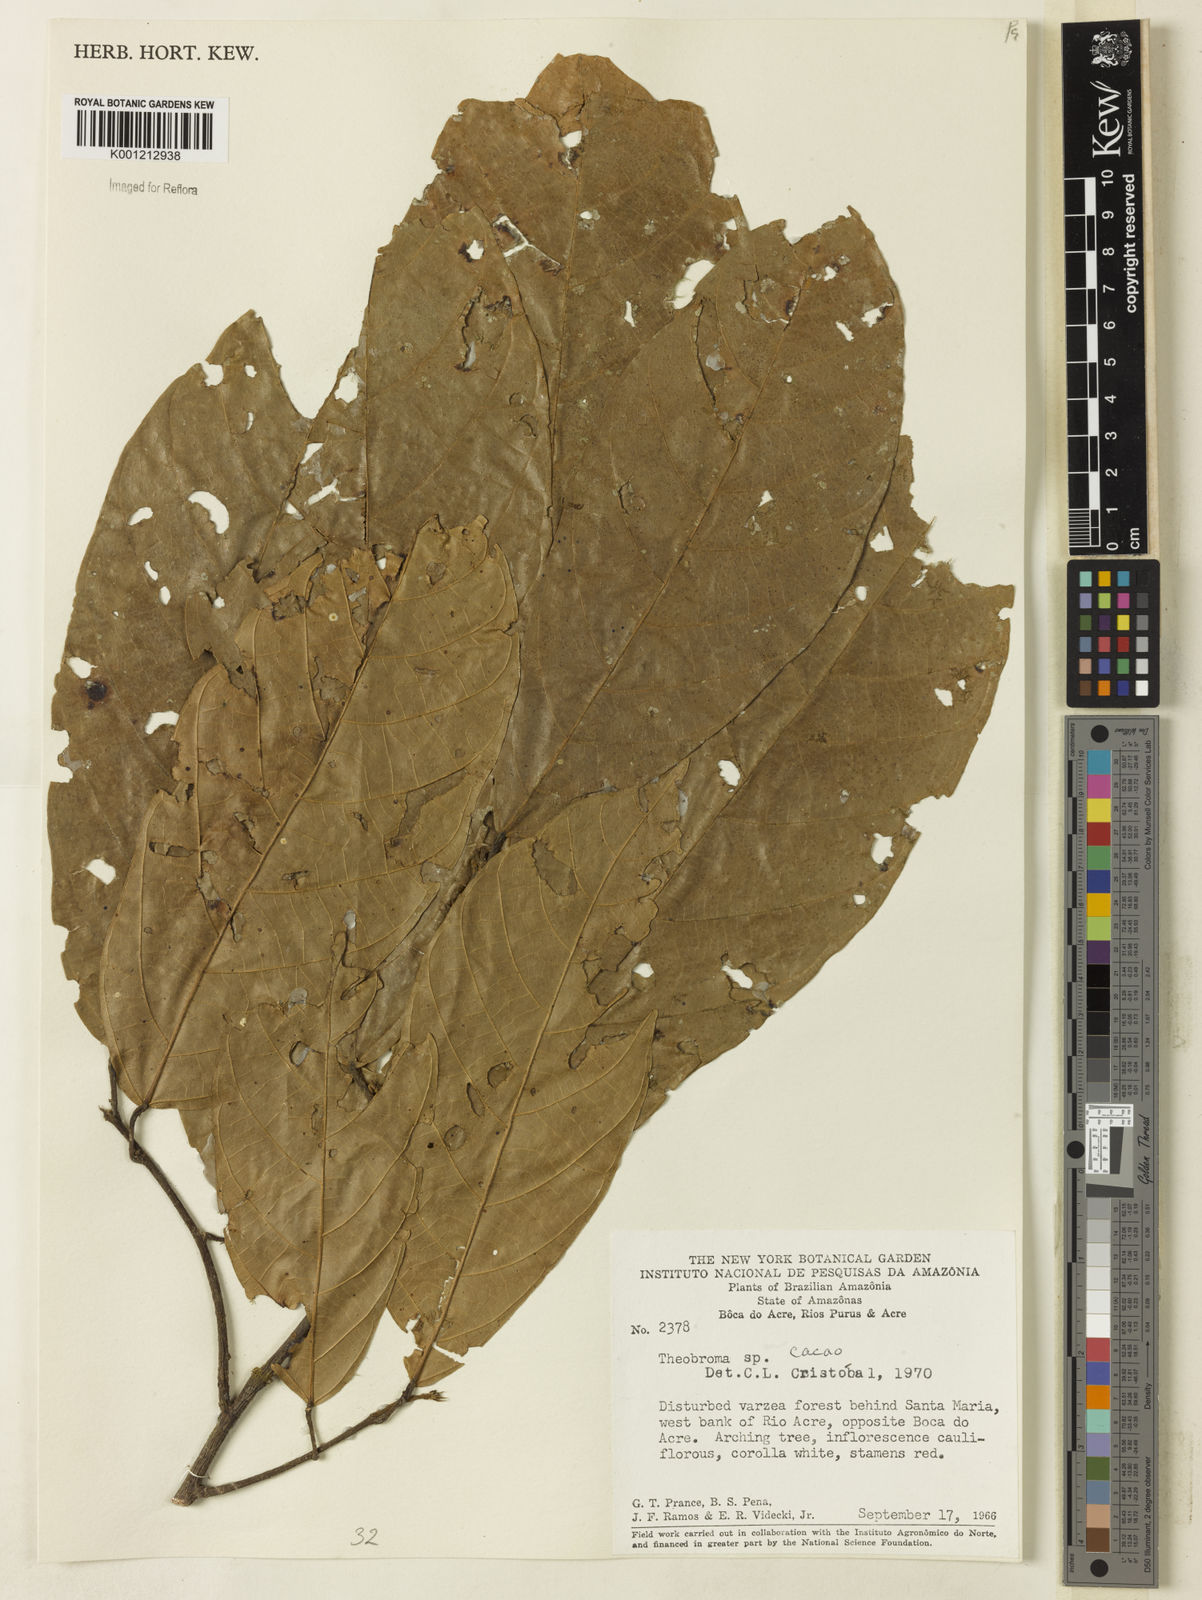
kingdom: Plantae
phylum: Tracheophyta
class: Magnoliopsida
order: Malvales
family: Malvaceae
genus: Theobroma
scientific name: Theobroma
